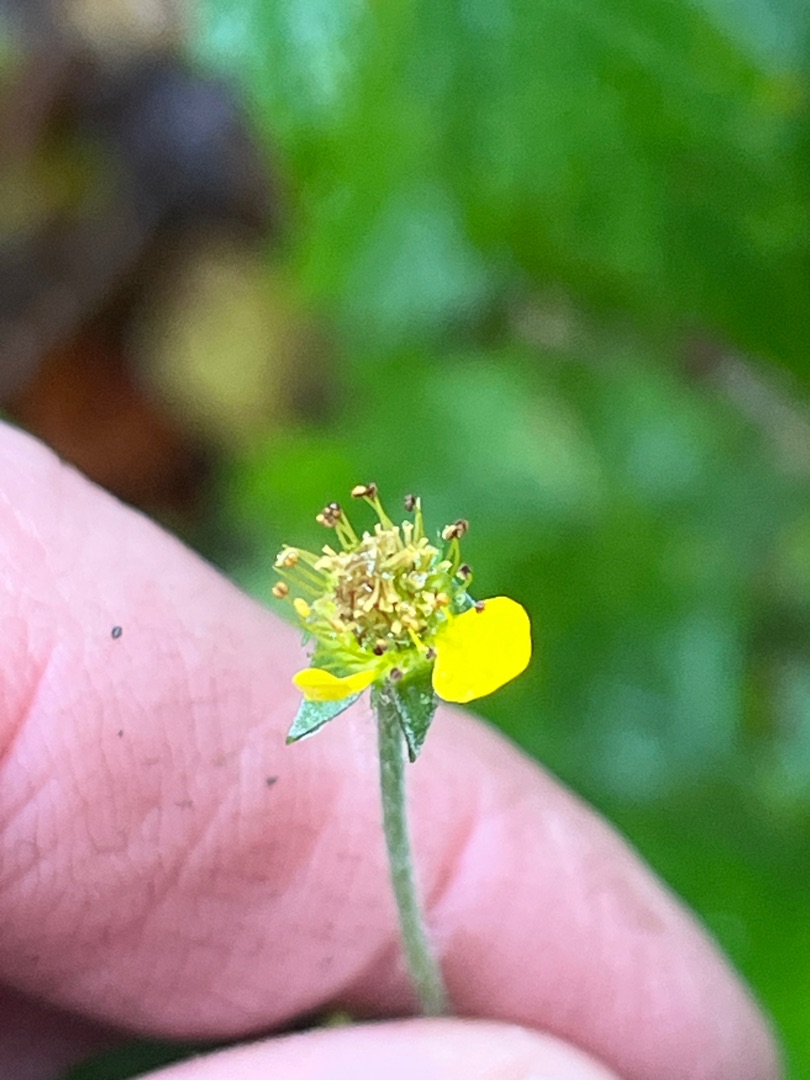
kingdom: Plantae
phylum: Tracheophyta
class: Magnoliopsida
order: Rosales
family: Rosaceae
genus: Geum
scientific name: Geum urbanum
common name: Feber-nellikerod
